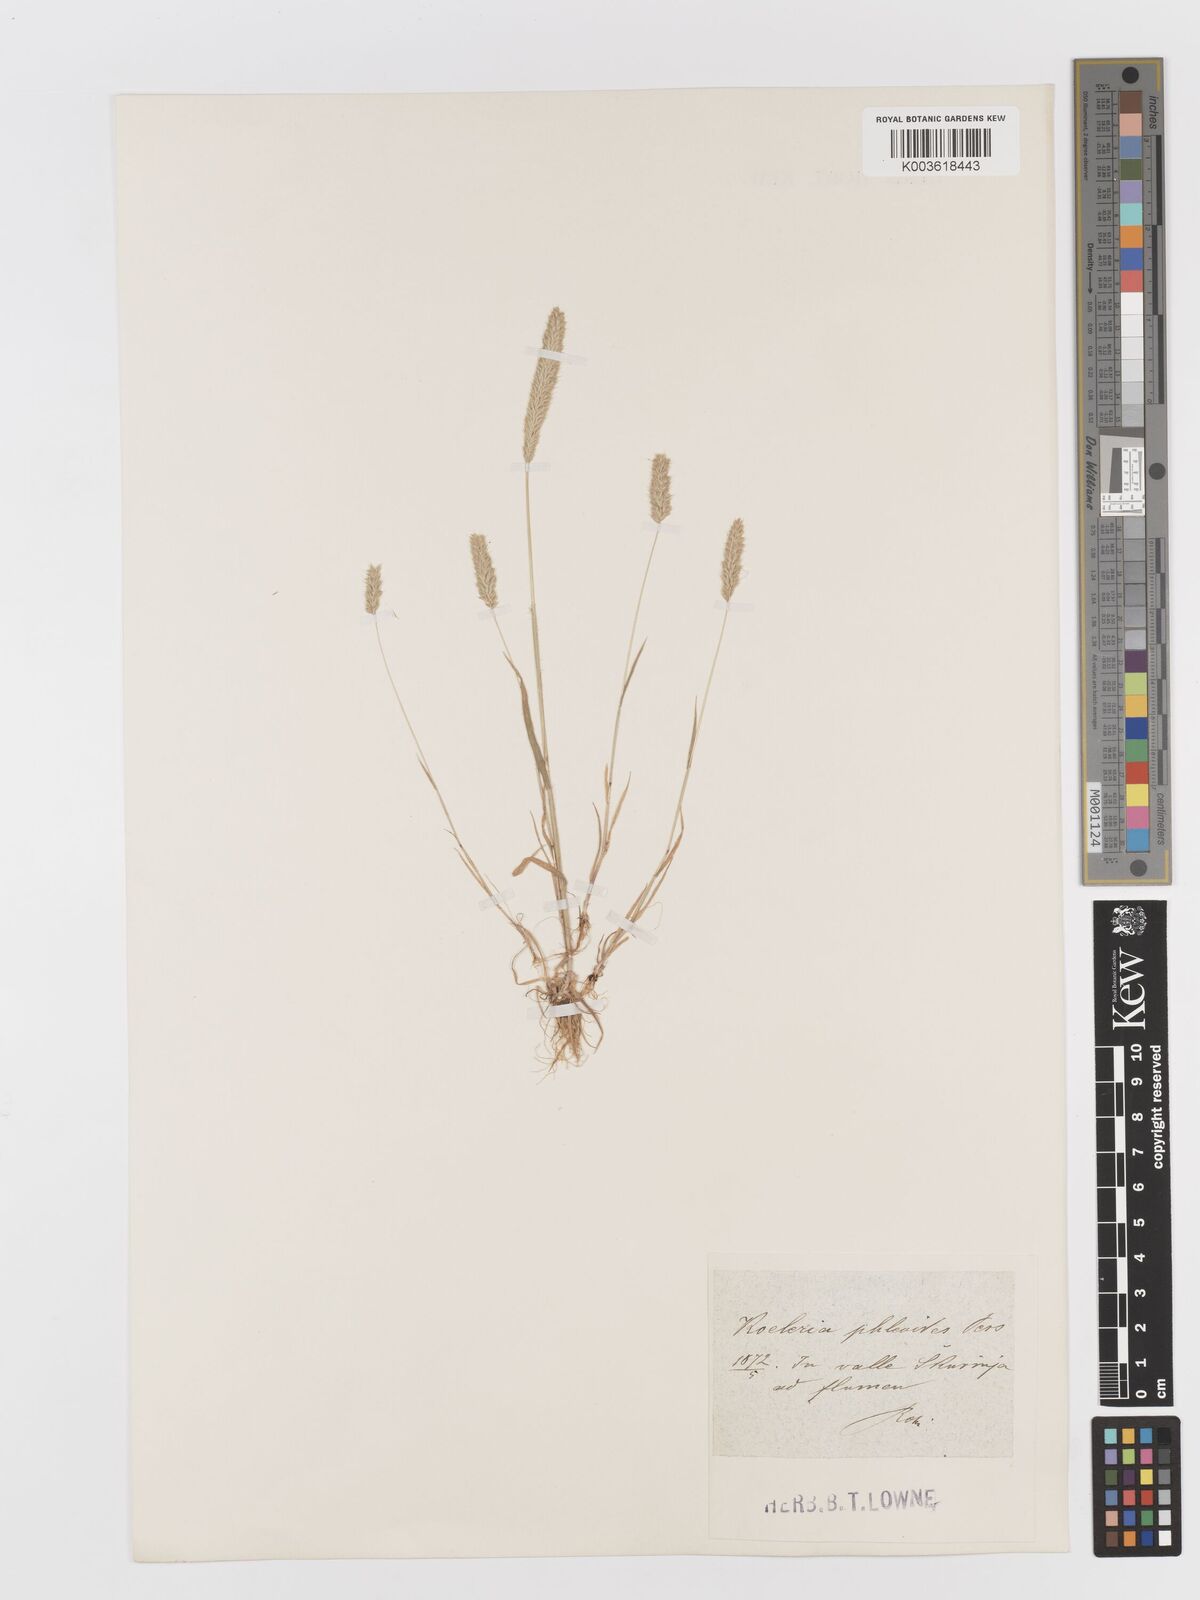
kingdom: Plantae
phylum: Tracheophyta
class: Liliopsida
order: Poales
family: Poaceae
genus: Rostraria
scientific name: Rostraria cristata
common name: Mediterranean hair-grass
